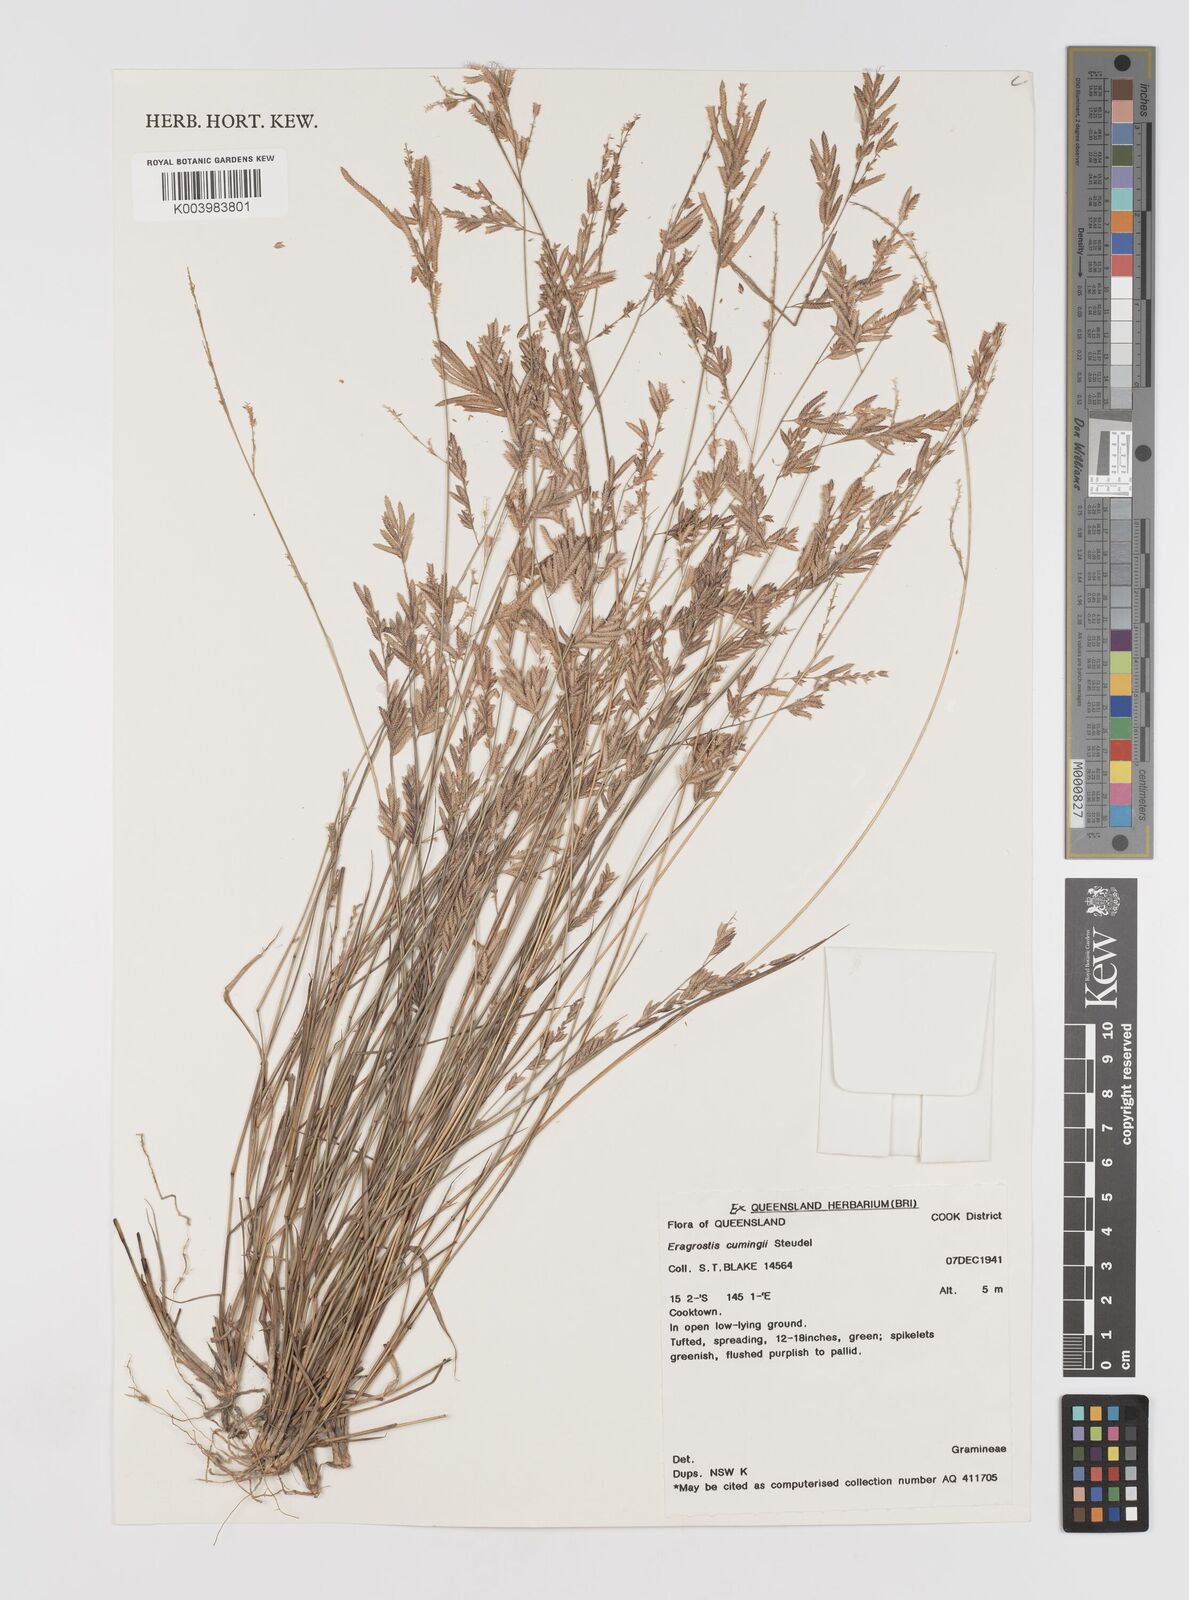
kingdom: Plantae
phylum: Tracheophyta
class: Liliopsida
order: Poales
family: Poaceae
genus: Eragrostis
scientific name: Eragrostis cumingii
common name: Cuming's lovegrass
